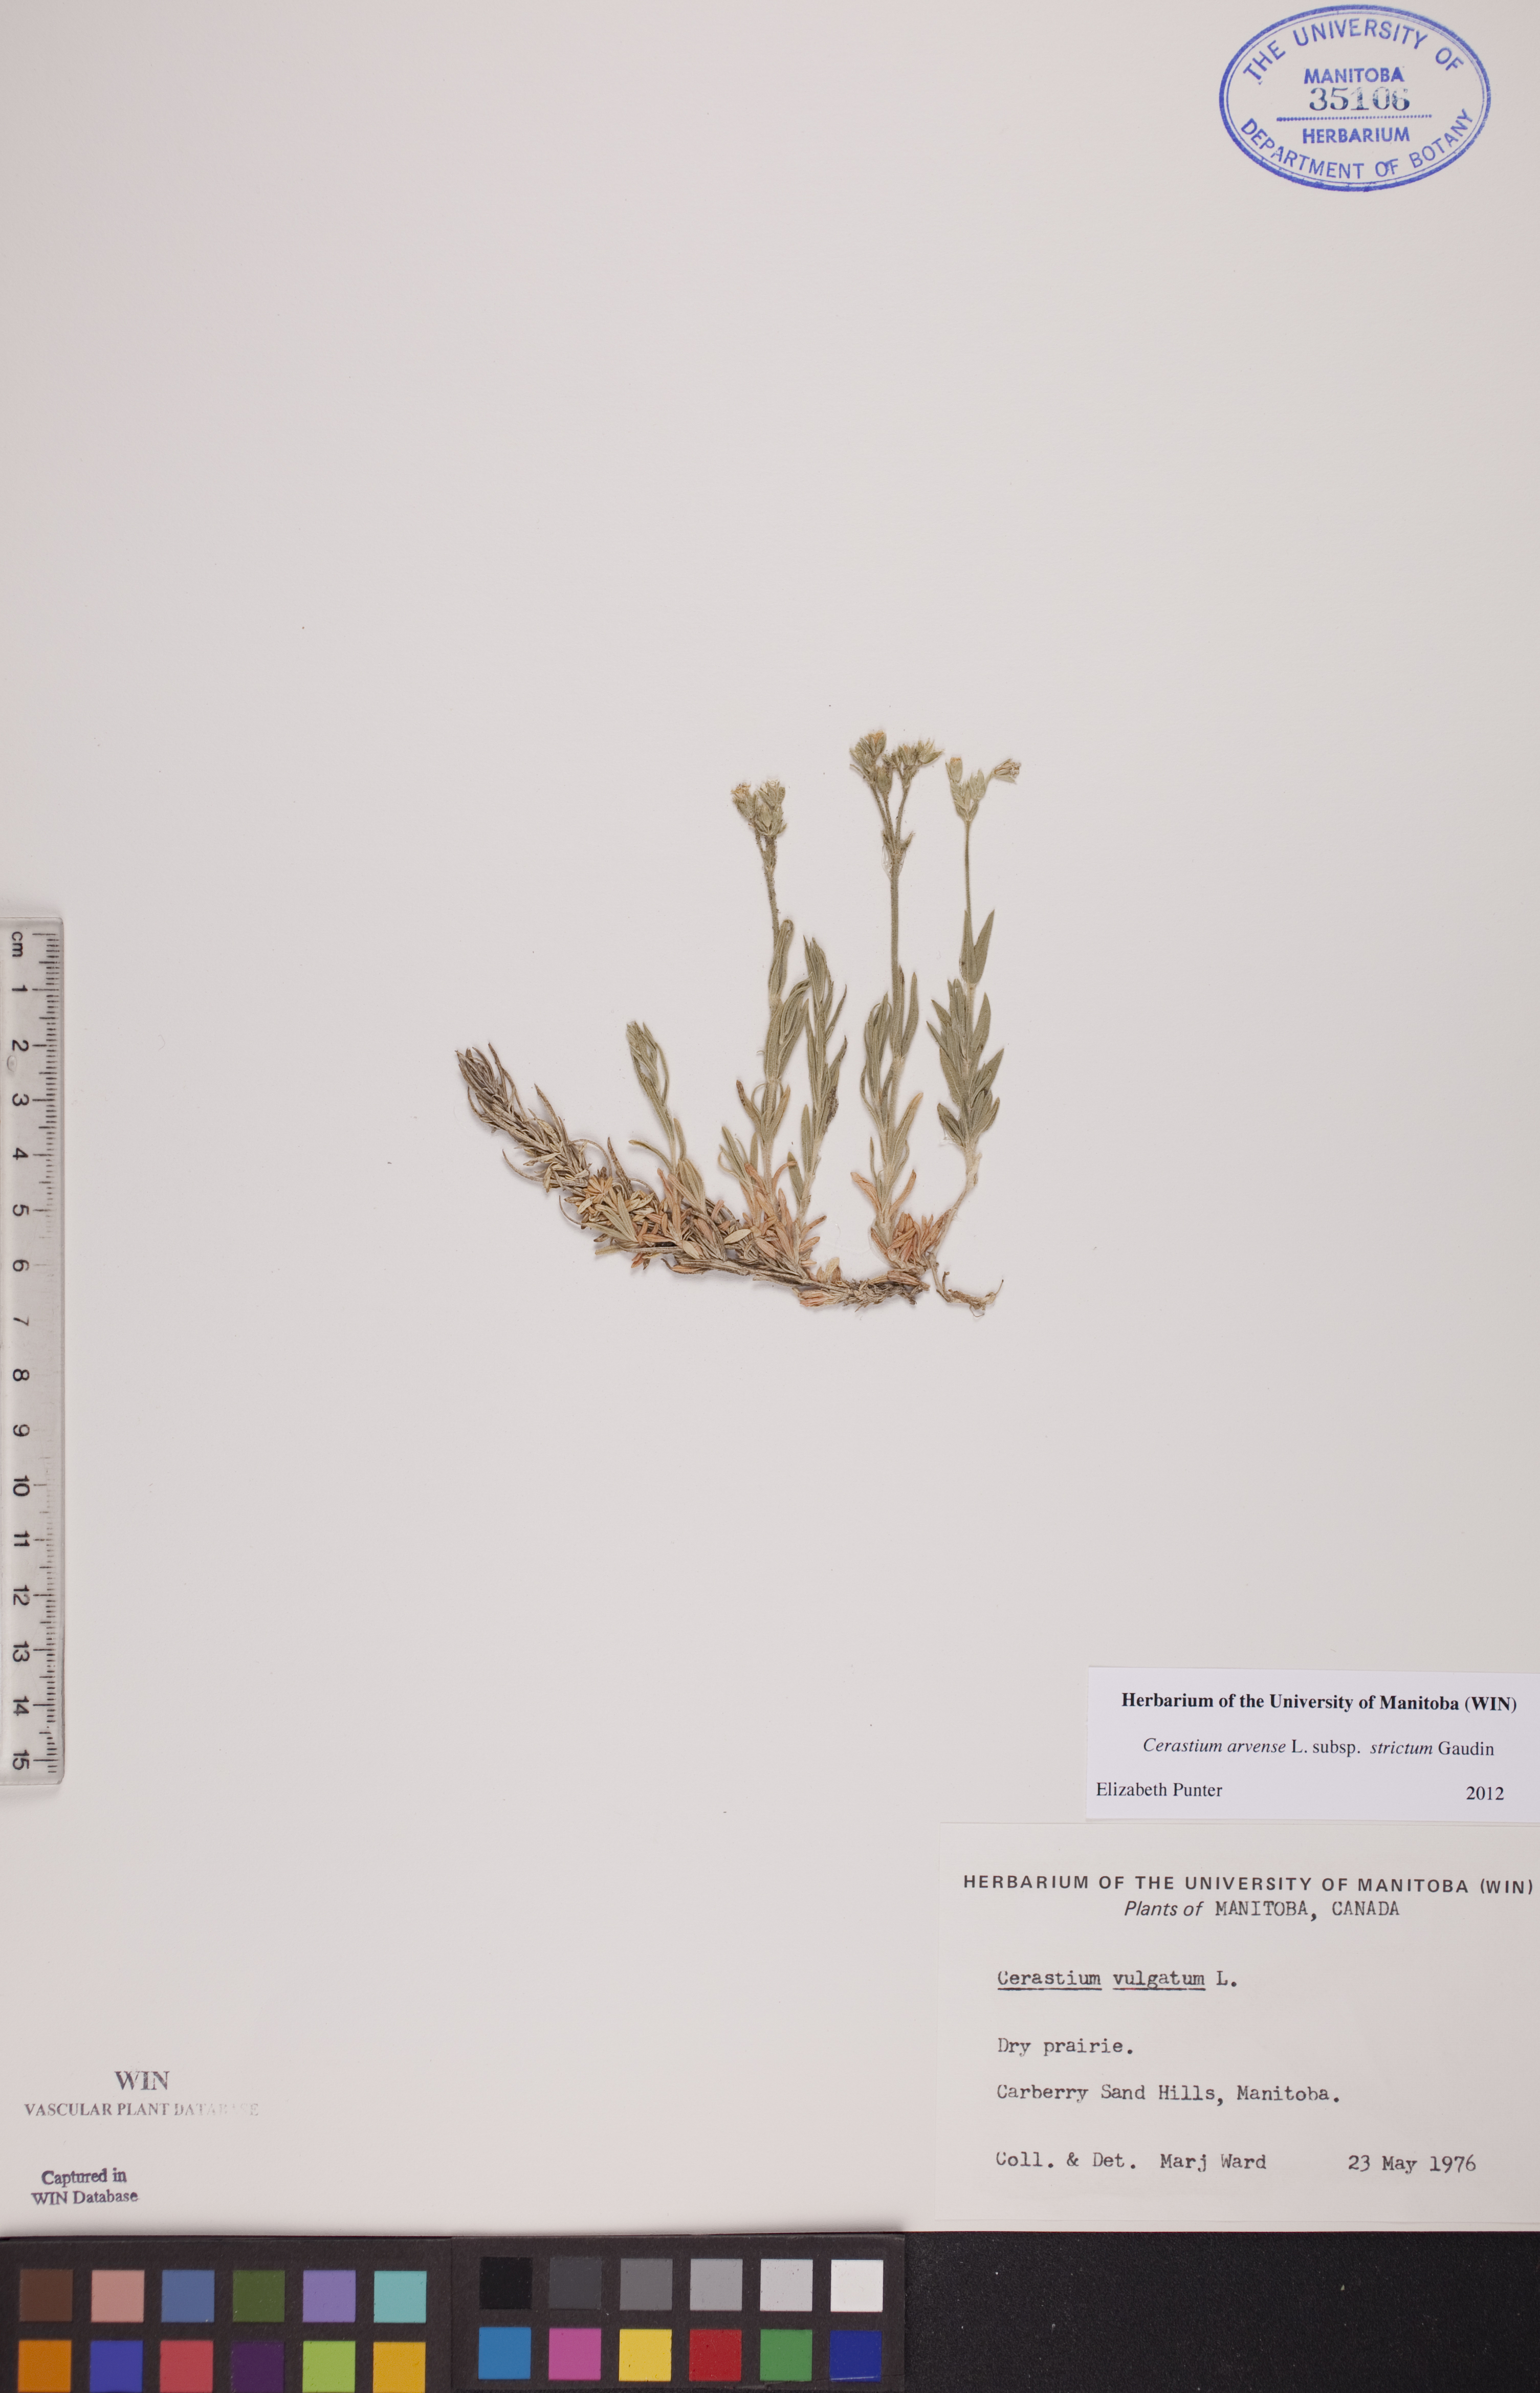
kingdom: Plantae
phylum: Tracheophyta
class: Magnoliopsida
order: Caryophyllales
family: Caryophyllaceae
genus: Cerastium
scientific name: Cerastium elongatum
